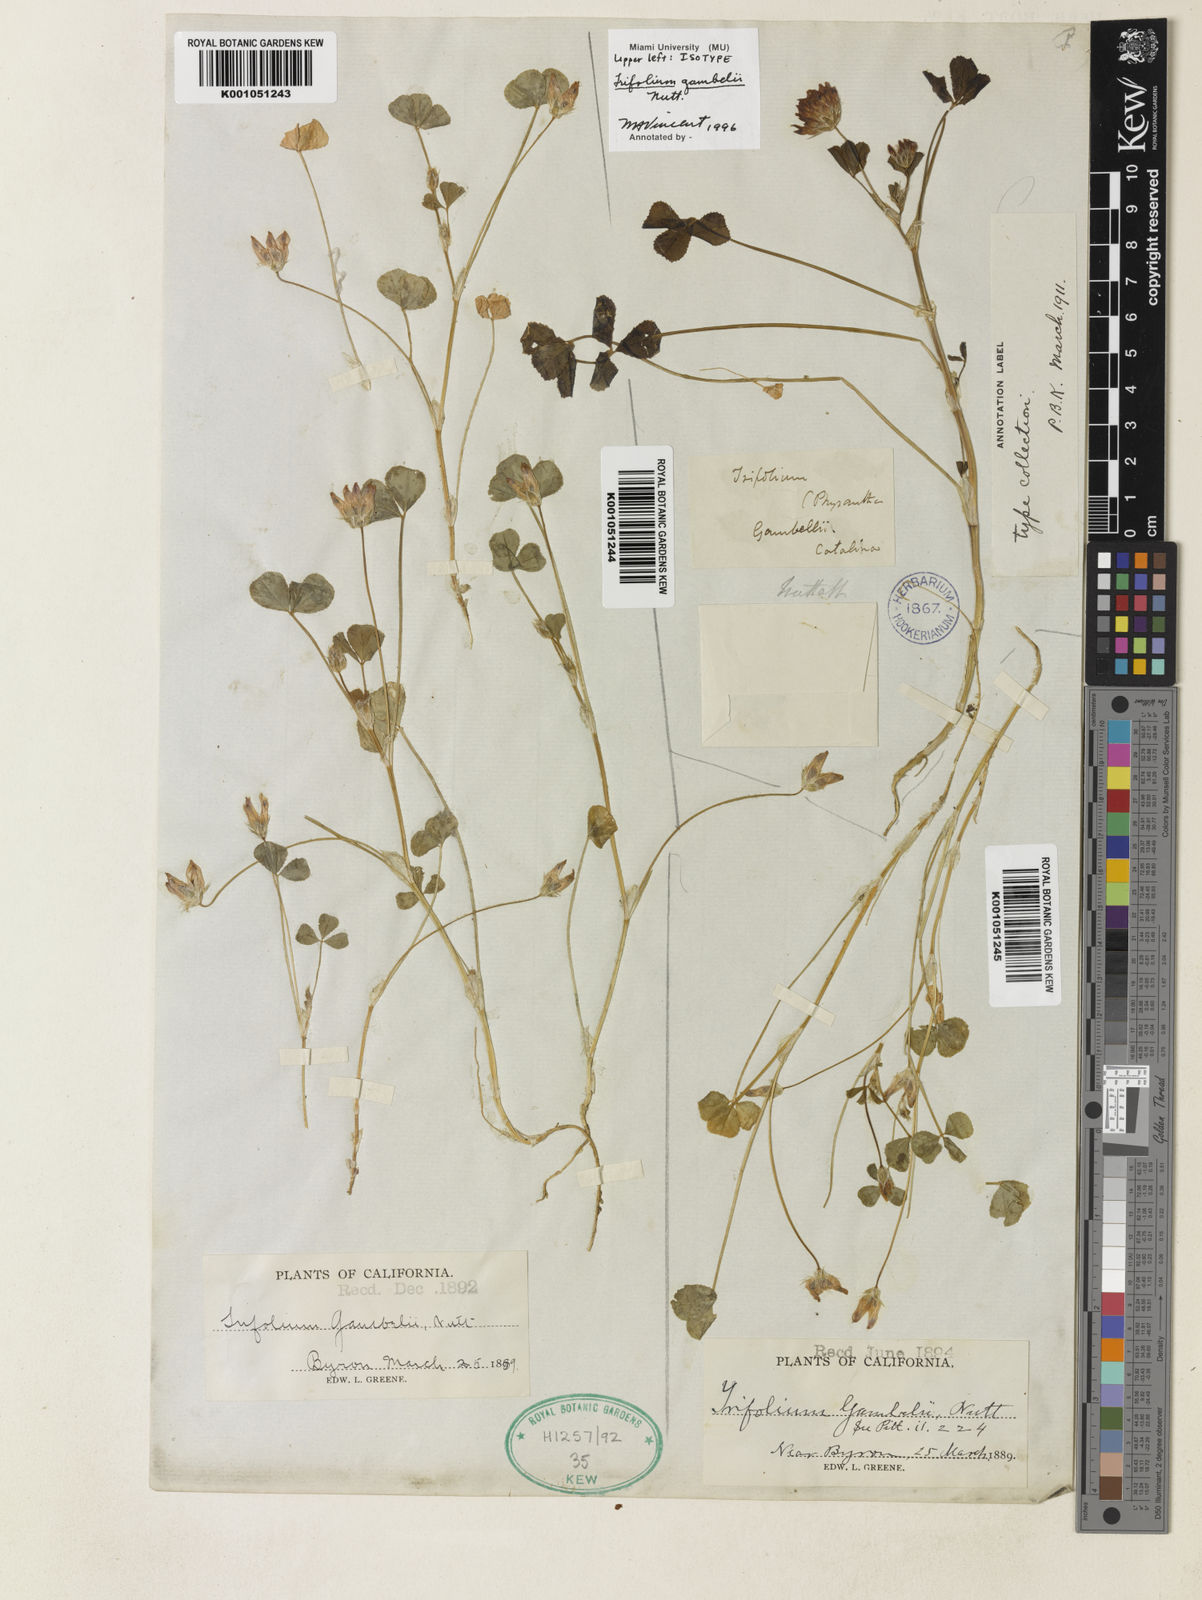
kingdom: Plantae
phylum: Tracheophyta
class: Magnoliopsida
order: Fabales
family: Fabaceae
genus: Trifolium
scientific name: Trifolium fucatum
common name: Puff clover
